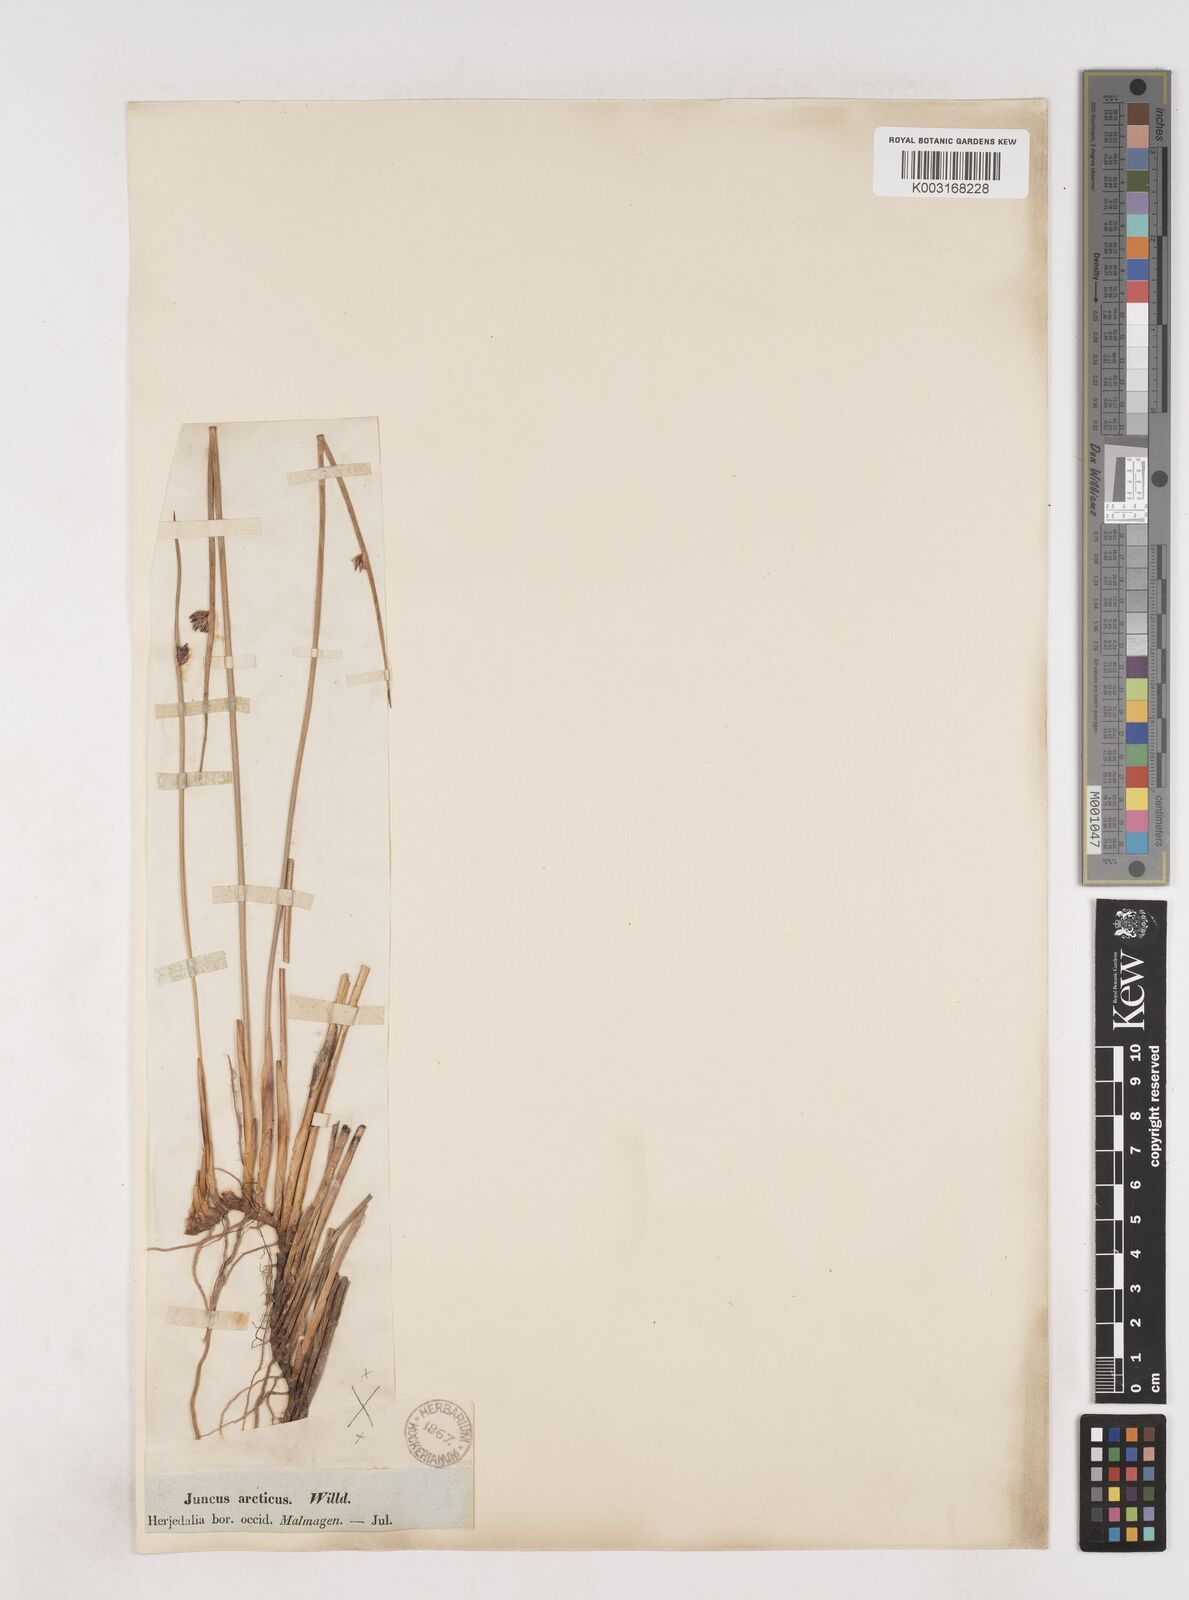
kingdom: Plantae
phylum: Tracheophyta
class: Liliopsida
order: Poales
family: Juncaceae
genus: Juncus
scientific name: Juncus arcticus
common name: Arctic rush
